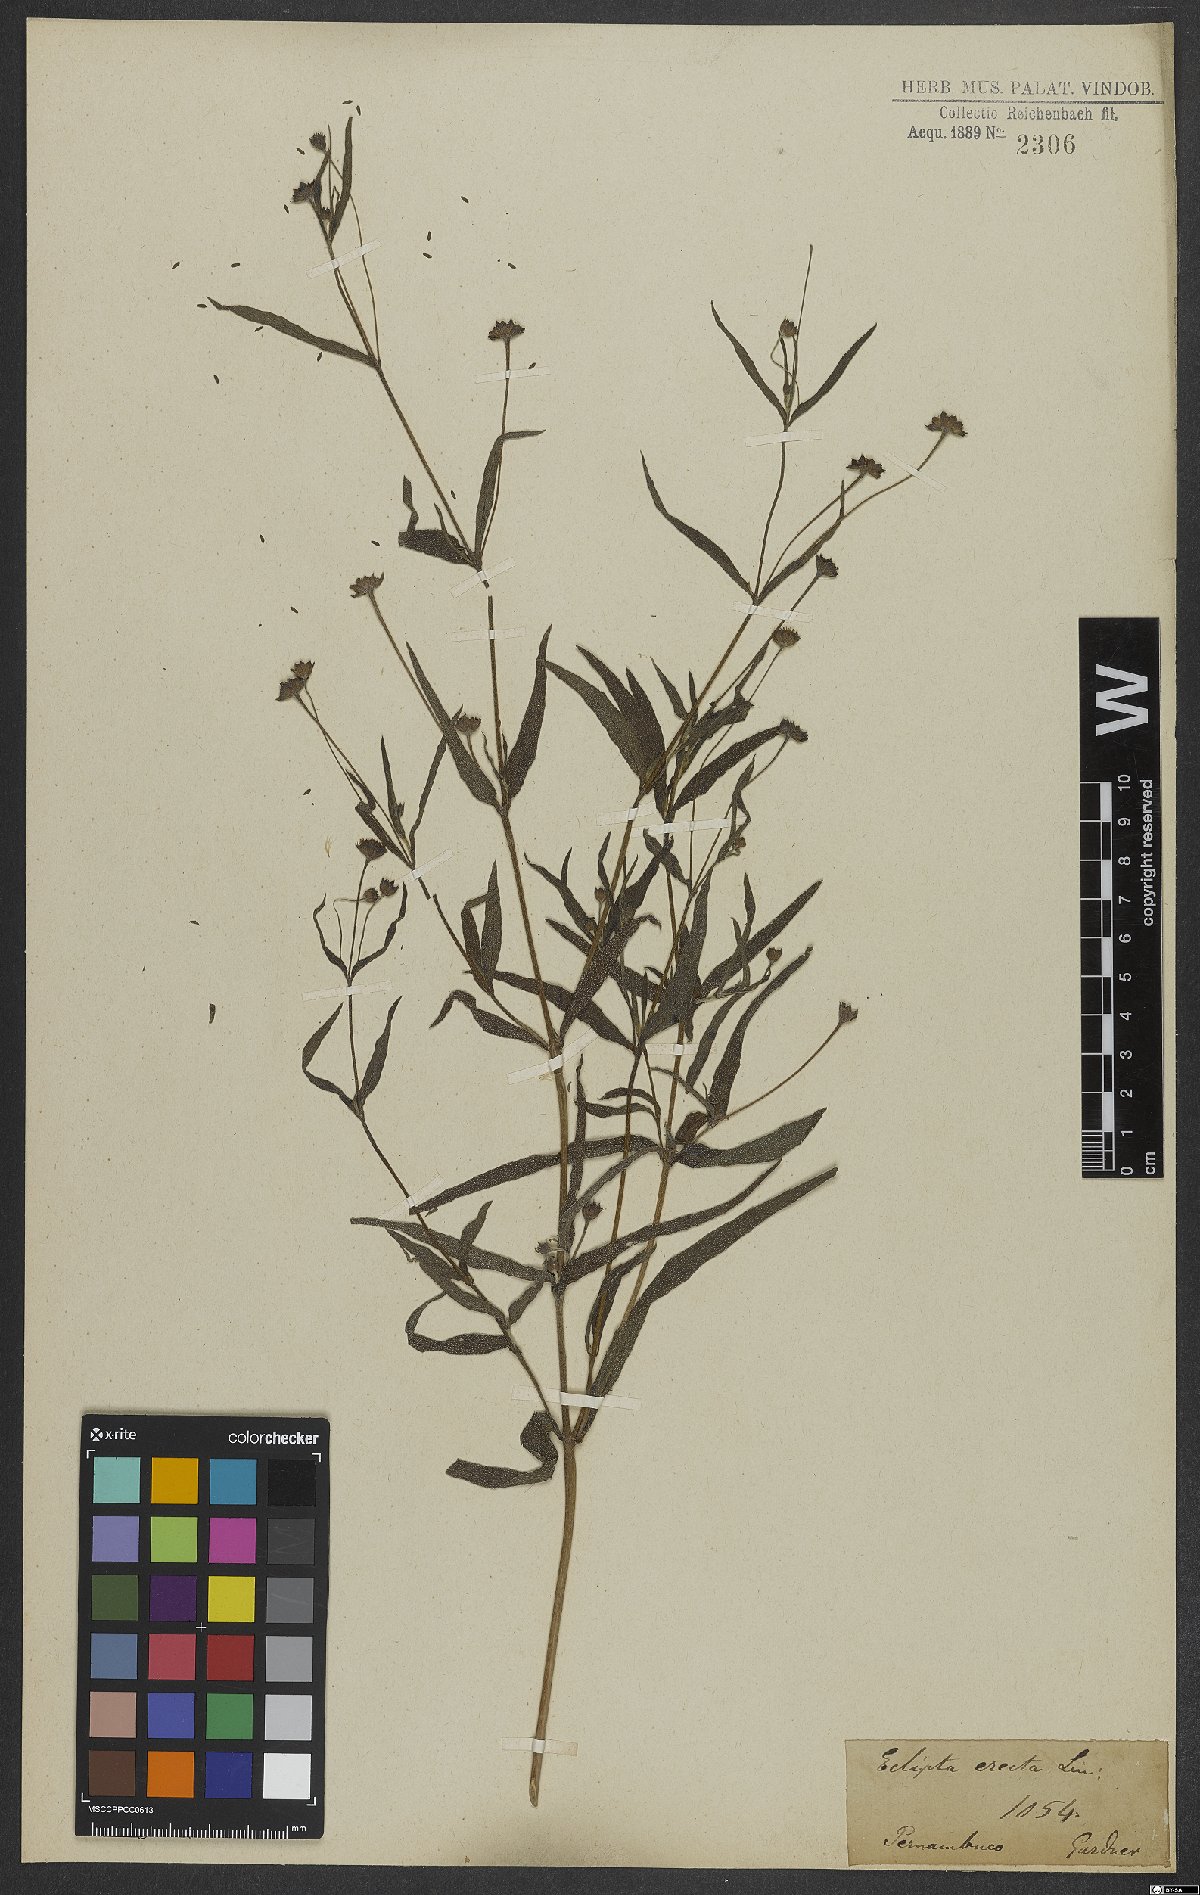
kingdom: Plantae
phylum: Tracheophyta
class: Magnoliopsida
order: Asterales
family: Asteraceae
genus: Eclipta
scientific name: Eclipta alba
